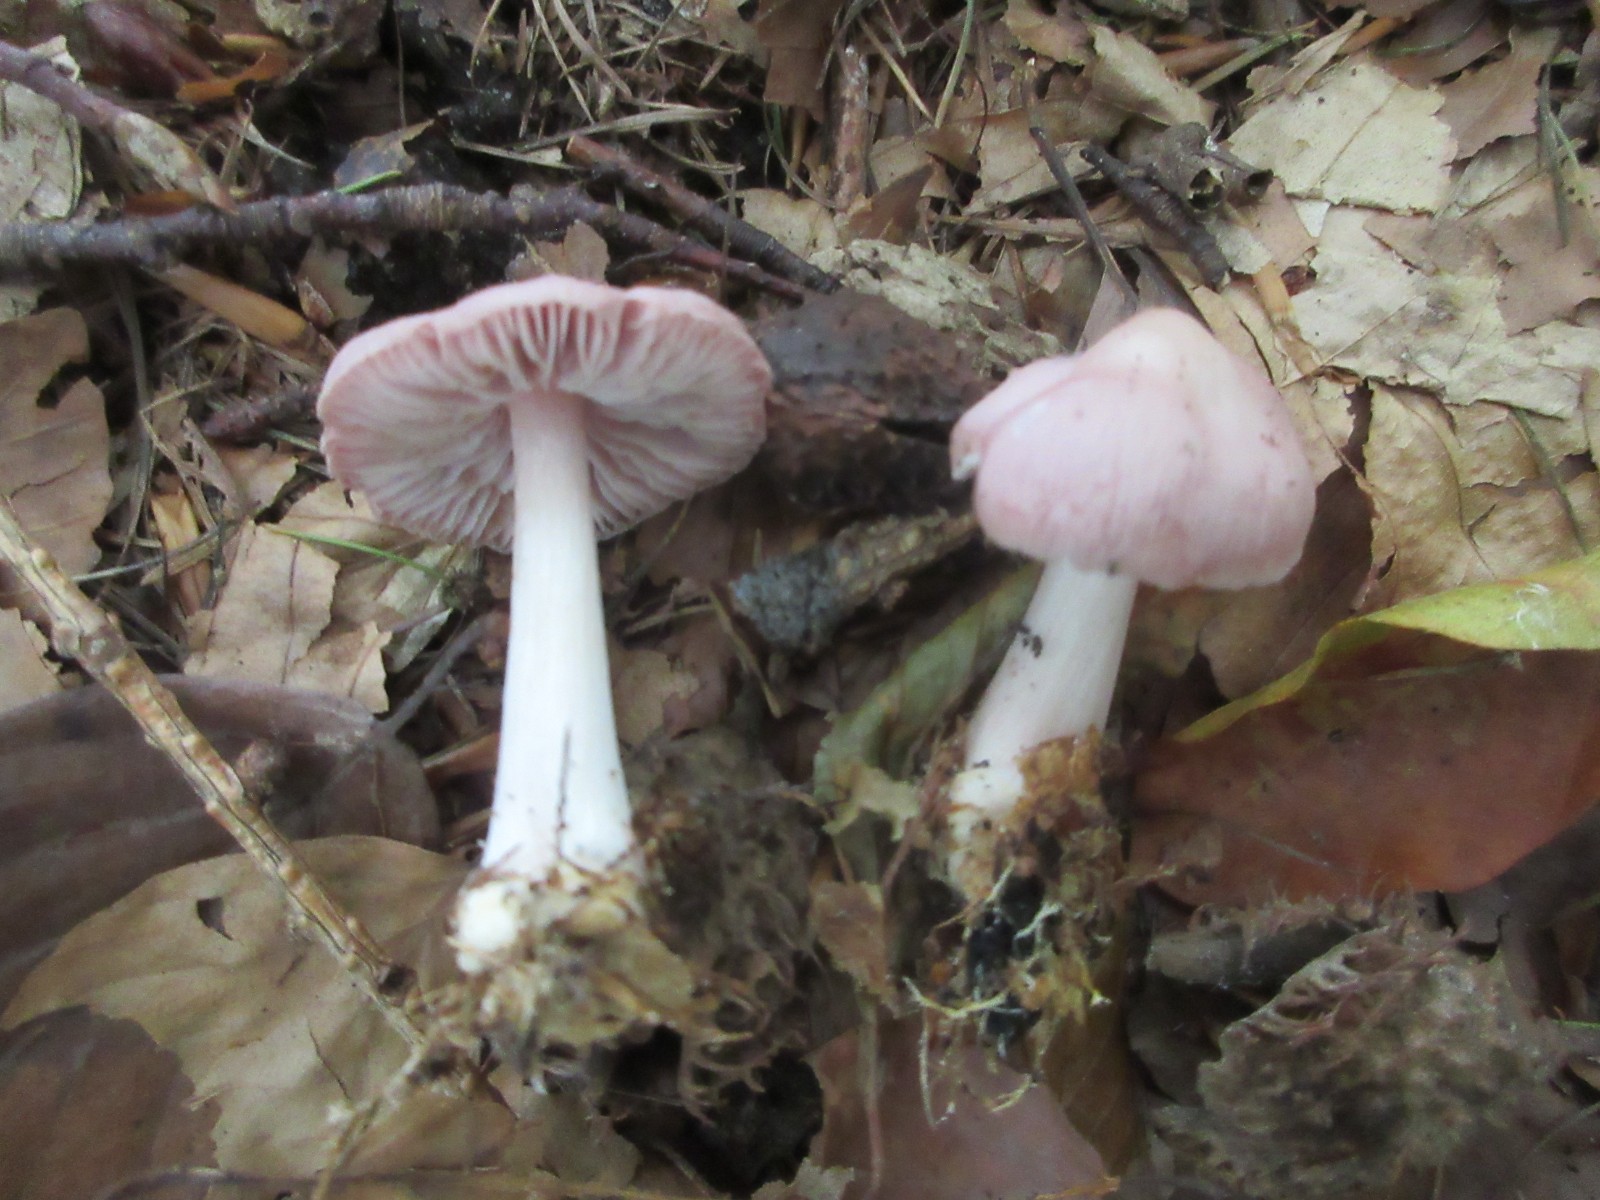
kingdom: Fungi
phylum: Basidiomycota
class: Agaricomycetes
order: Agaricales
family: Mycenaceae
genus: Mycena
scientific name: Mycena rosea
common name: rosa huesvamp
